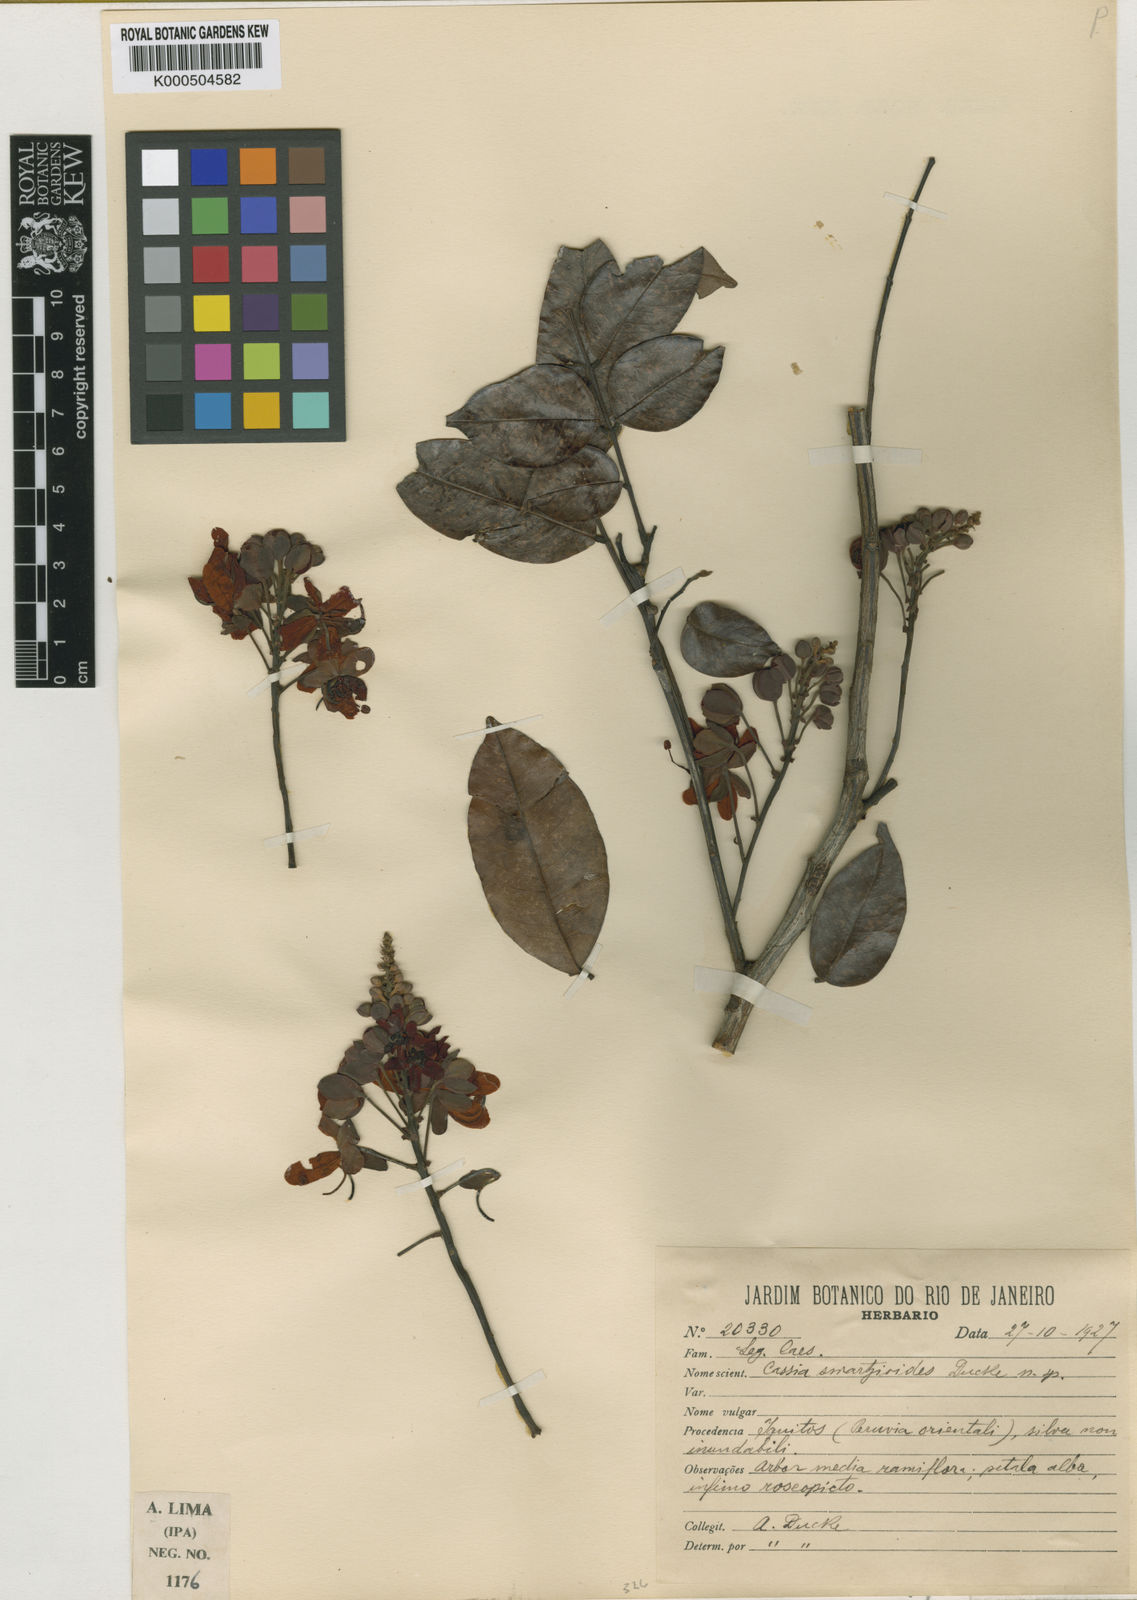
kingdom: Plantae
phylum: Tracheophyta
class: Magnoliopsida
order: Fabales
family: Fabaceae
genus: Cassia
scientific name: Cassia swartzioides
